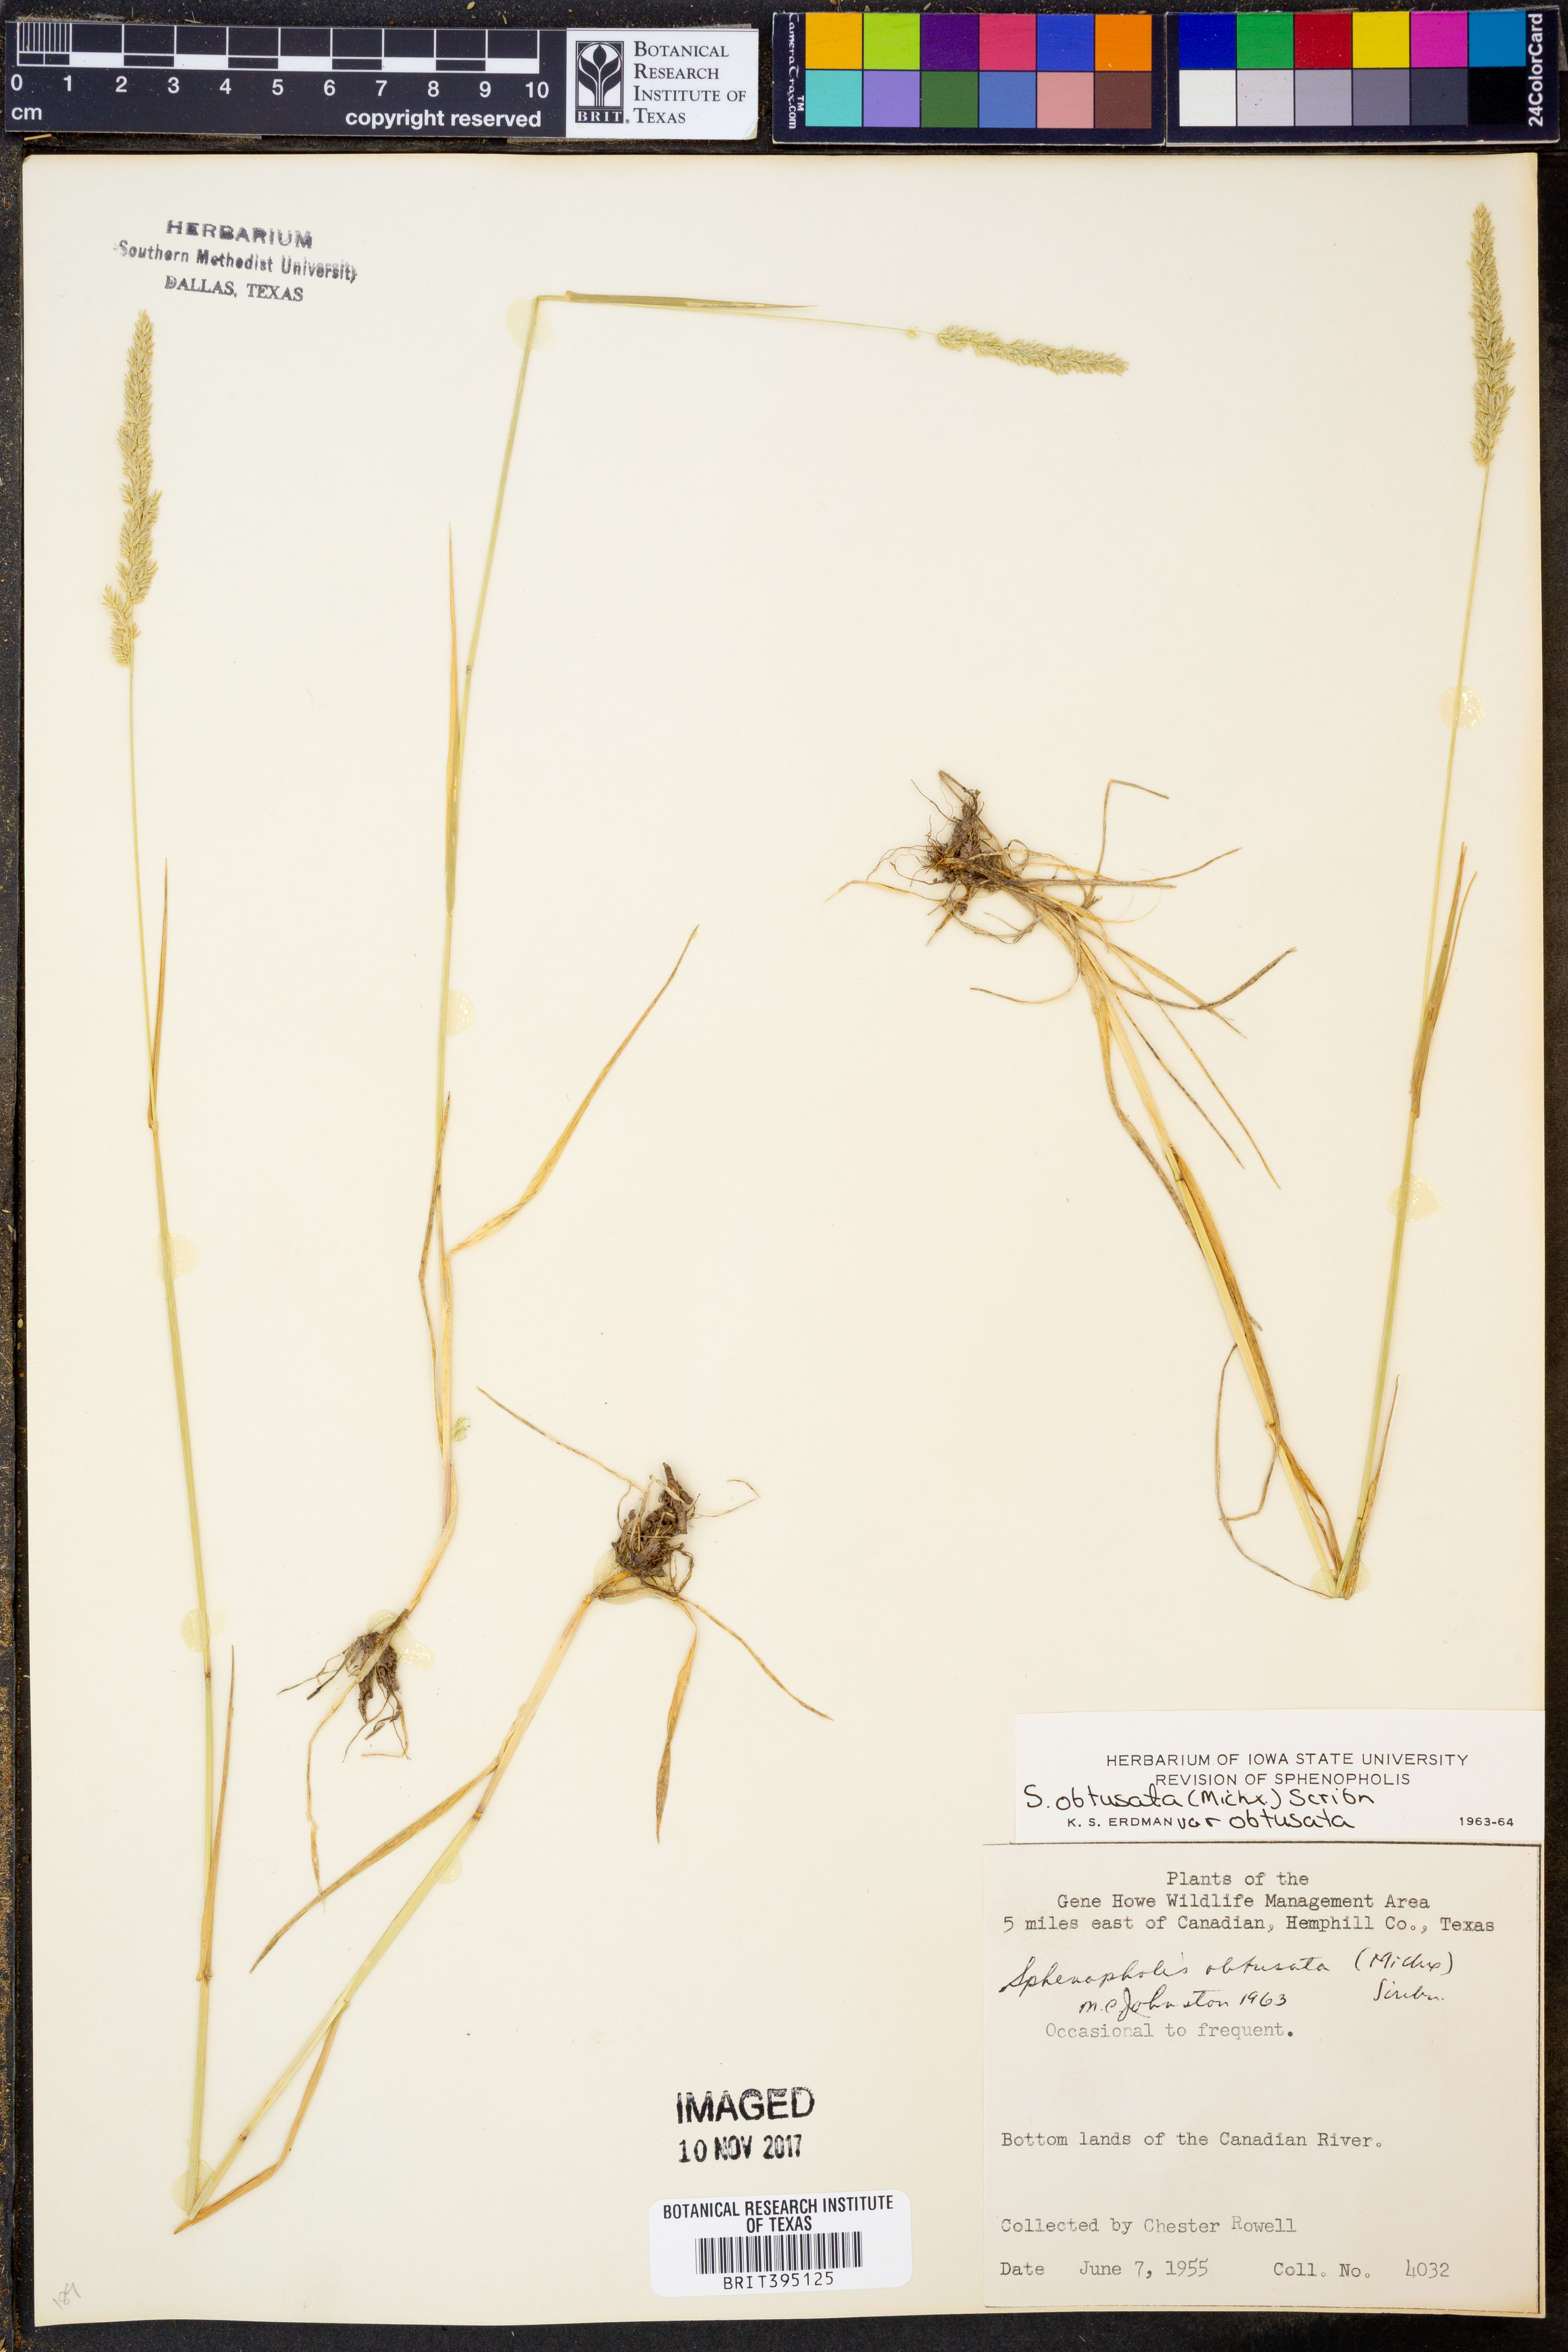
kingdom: Plantae
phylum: Tracheophyta
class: Liliopsida
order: Poales
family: Poaceae
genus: Sphenopholis
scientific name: Sphenopholis obtusata
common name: Prairie grass
